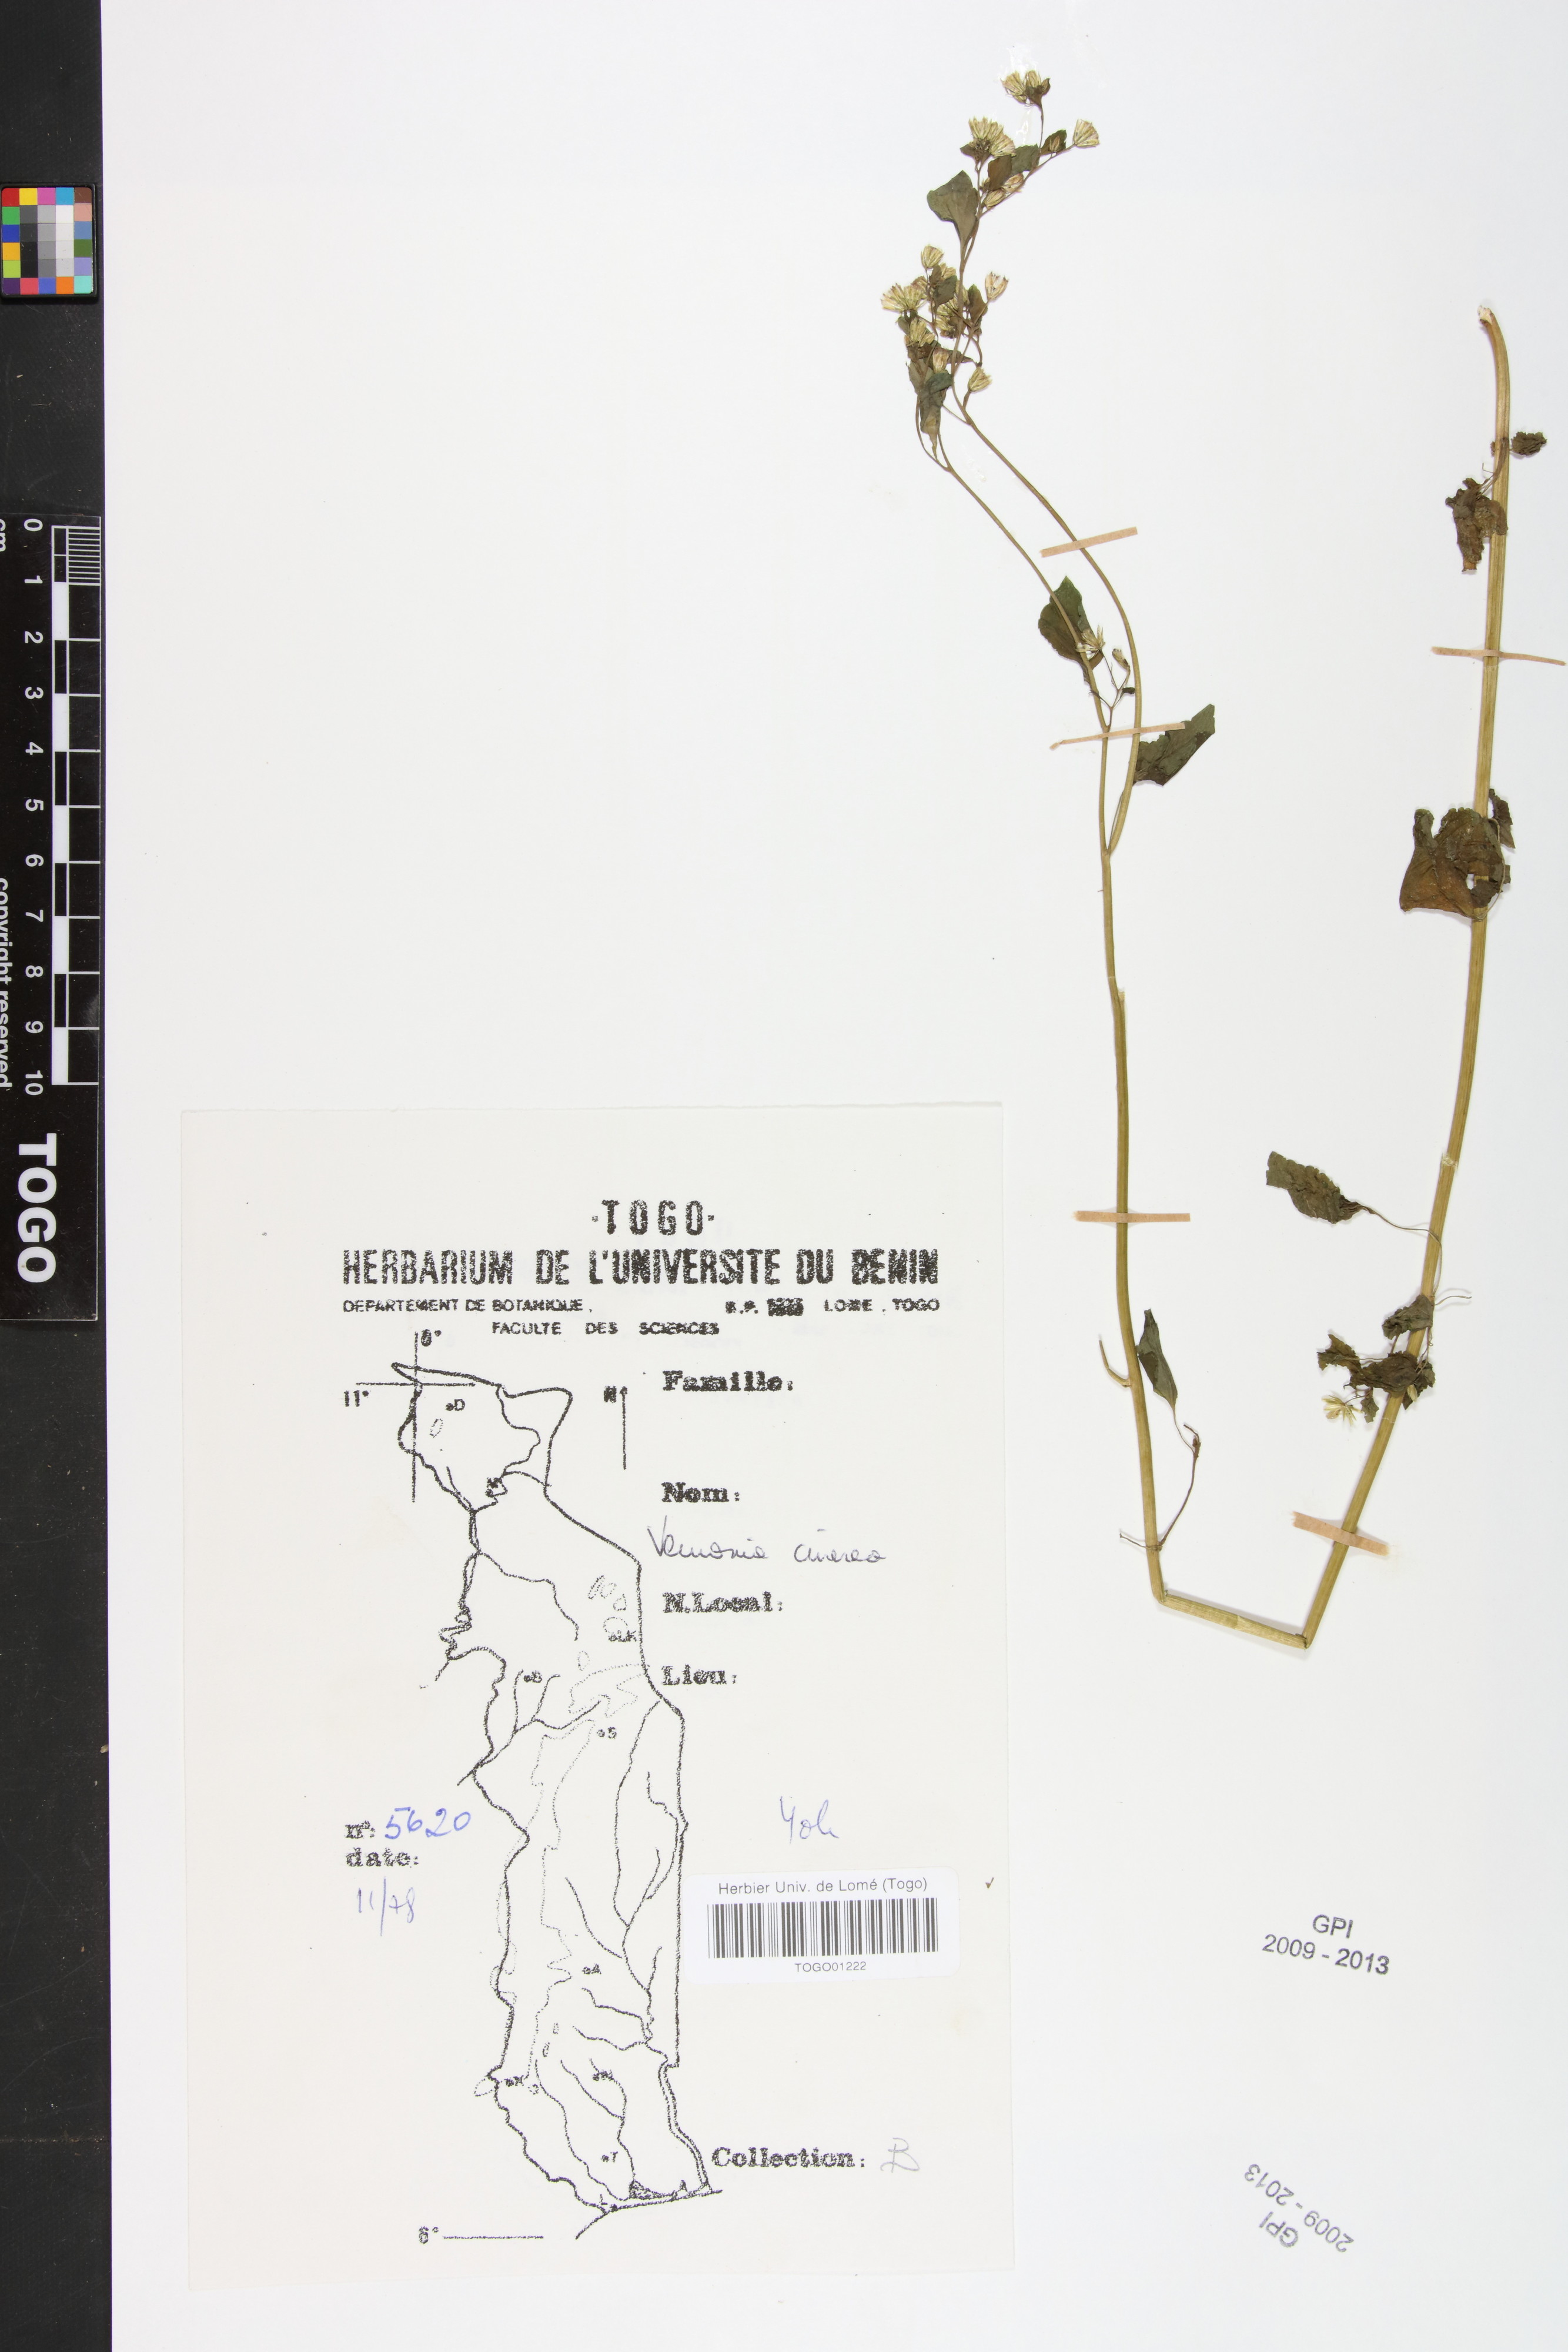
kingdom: Plantae
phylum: Tracheophyta
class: Magnoliopsida
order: Asterales
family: Asteraceae
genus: Cyanthillium
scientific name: Cyanthillium cinereum
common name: Little ironweed
